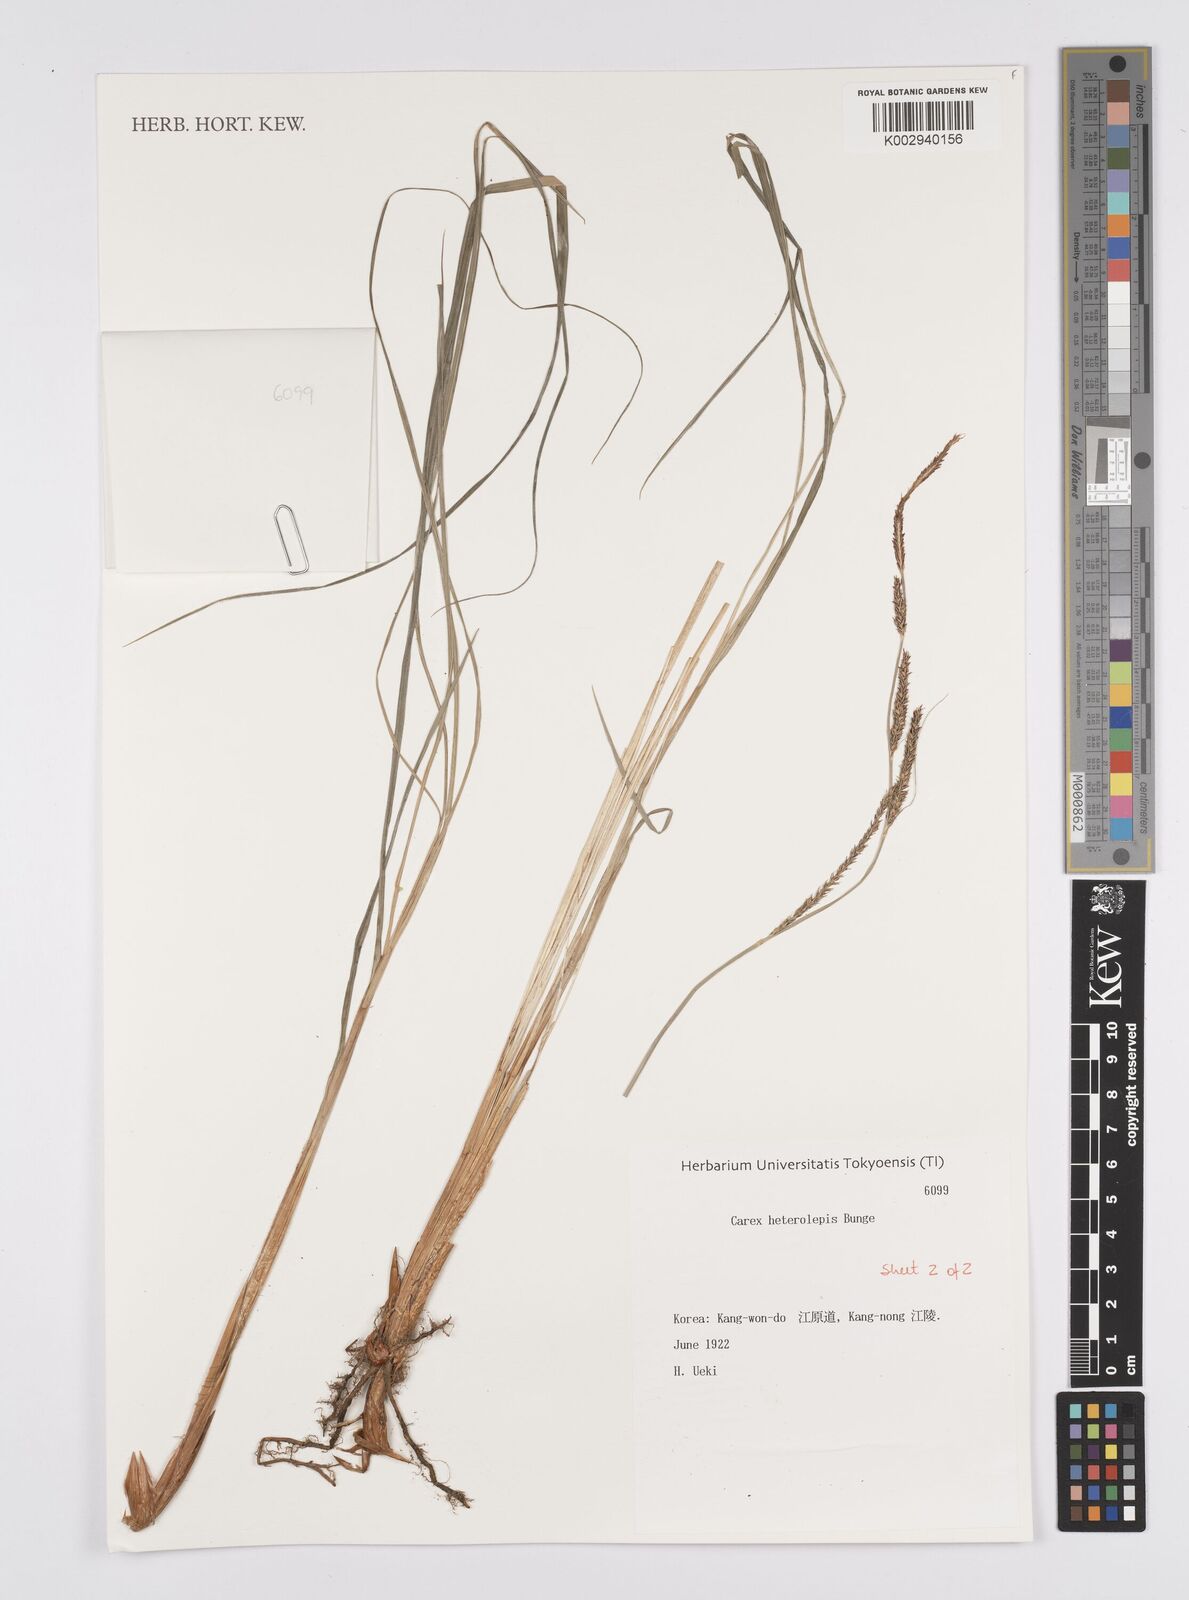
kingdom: Plantae
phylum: Tracheophyta
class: Liliopsida
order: Poales
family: Cyperaceae
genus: Carex
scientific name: Carex heterolepis
